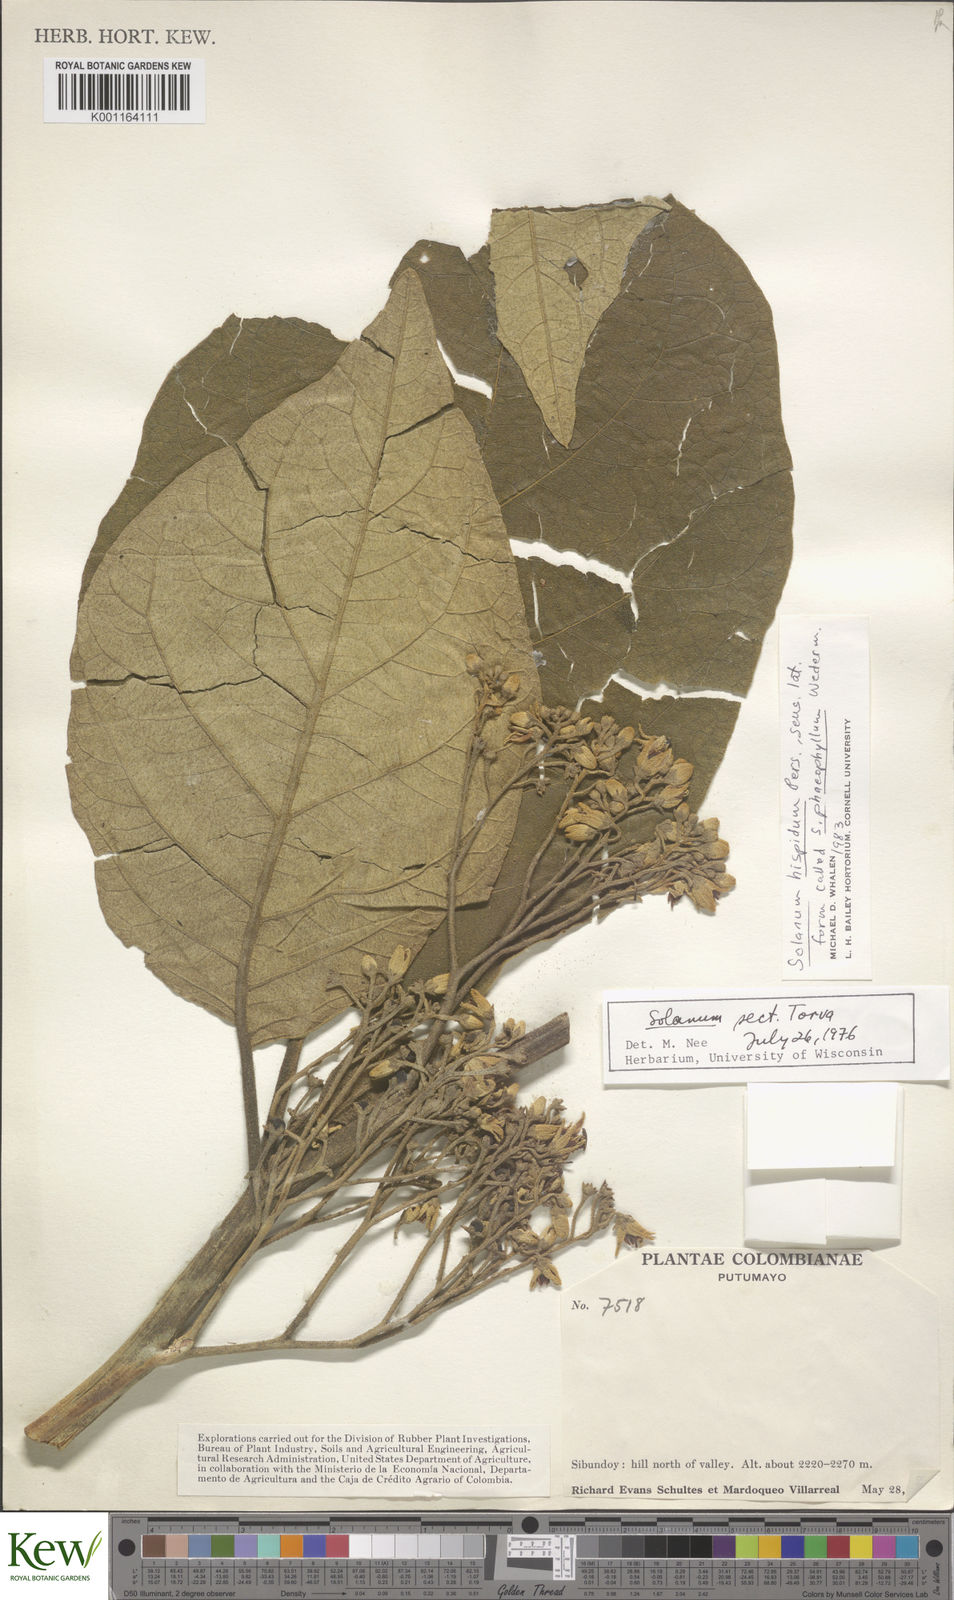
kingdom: Plantae
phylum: Tracheophyta
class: Magnoliopsida
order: Solanales
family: Solanaceae
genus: Solanum
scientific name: Solanum asperolanatum
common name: Devil's-fig
